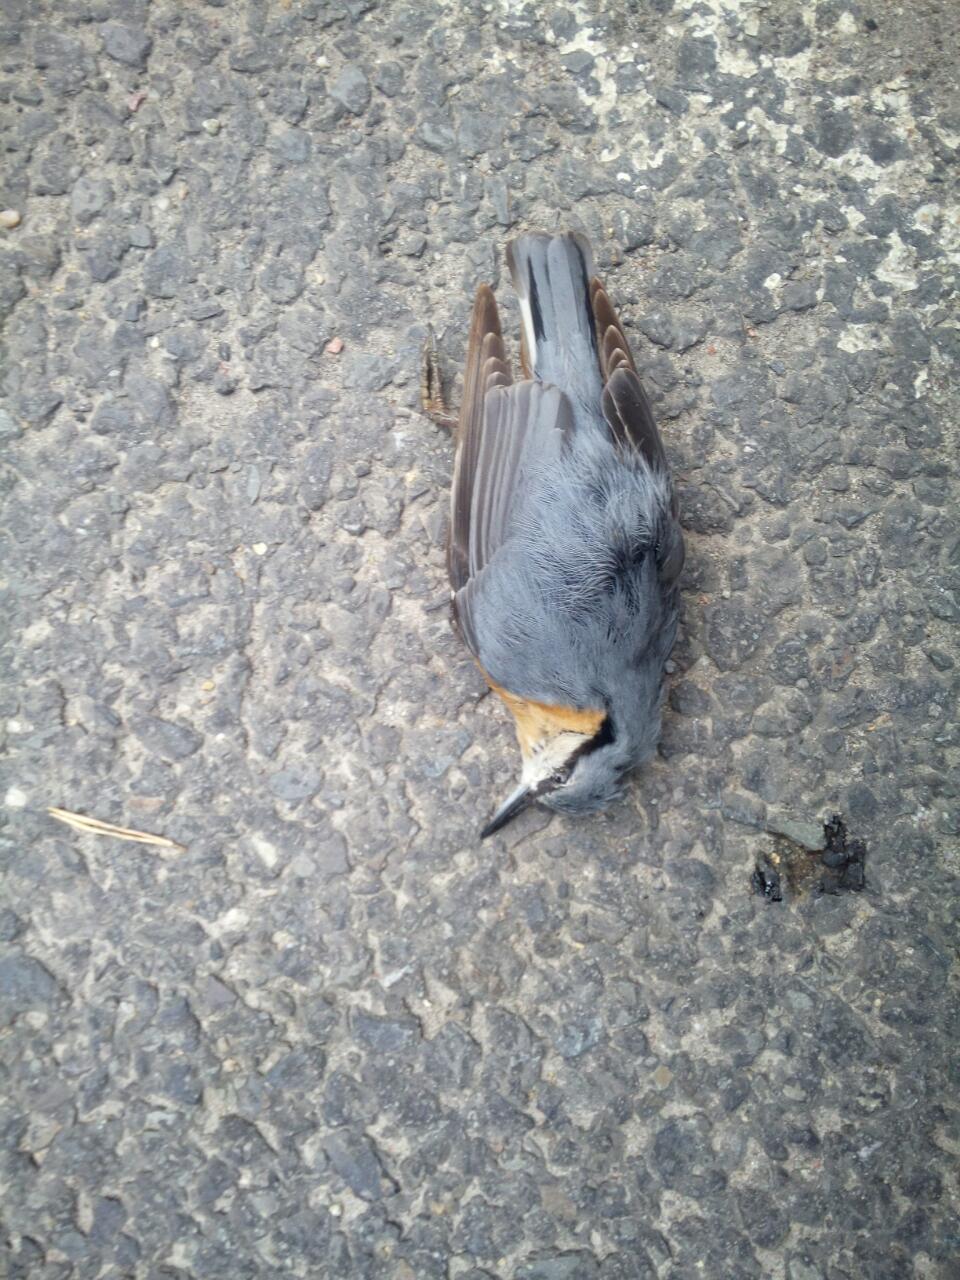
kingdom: Animalia
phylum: Chordata
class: Aves
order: Passeriformes
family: Sittidae
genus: Sitta
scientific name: Sitta europaea
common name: Eurasian nuthatch
